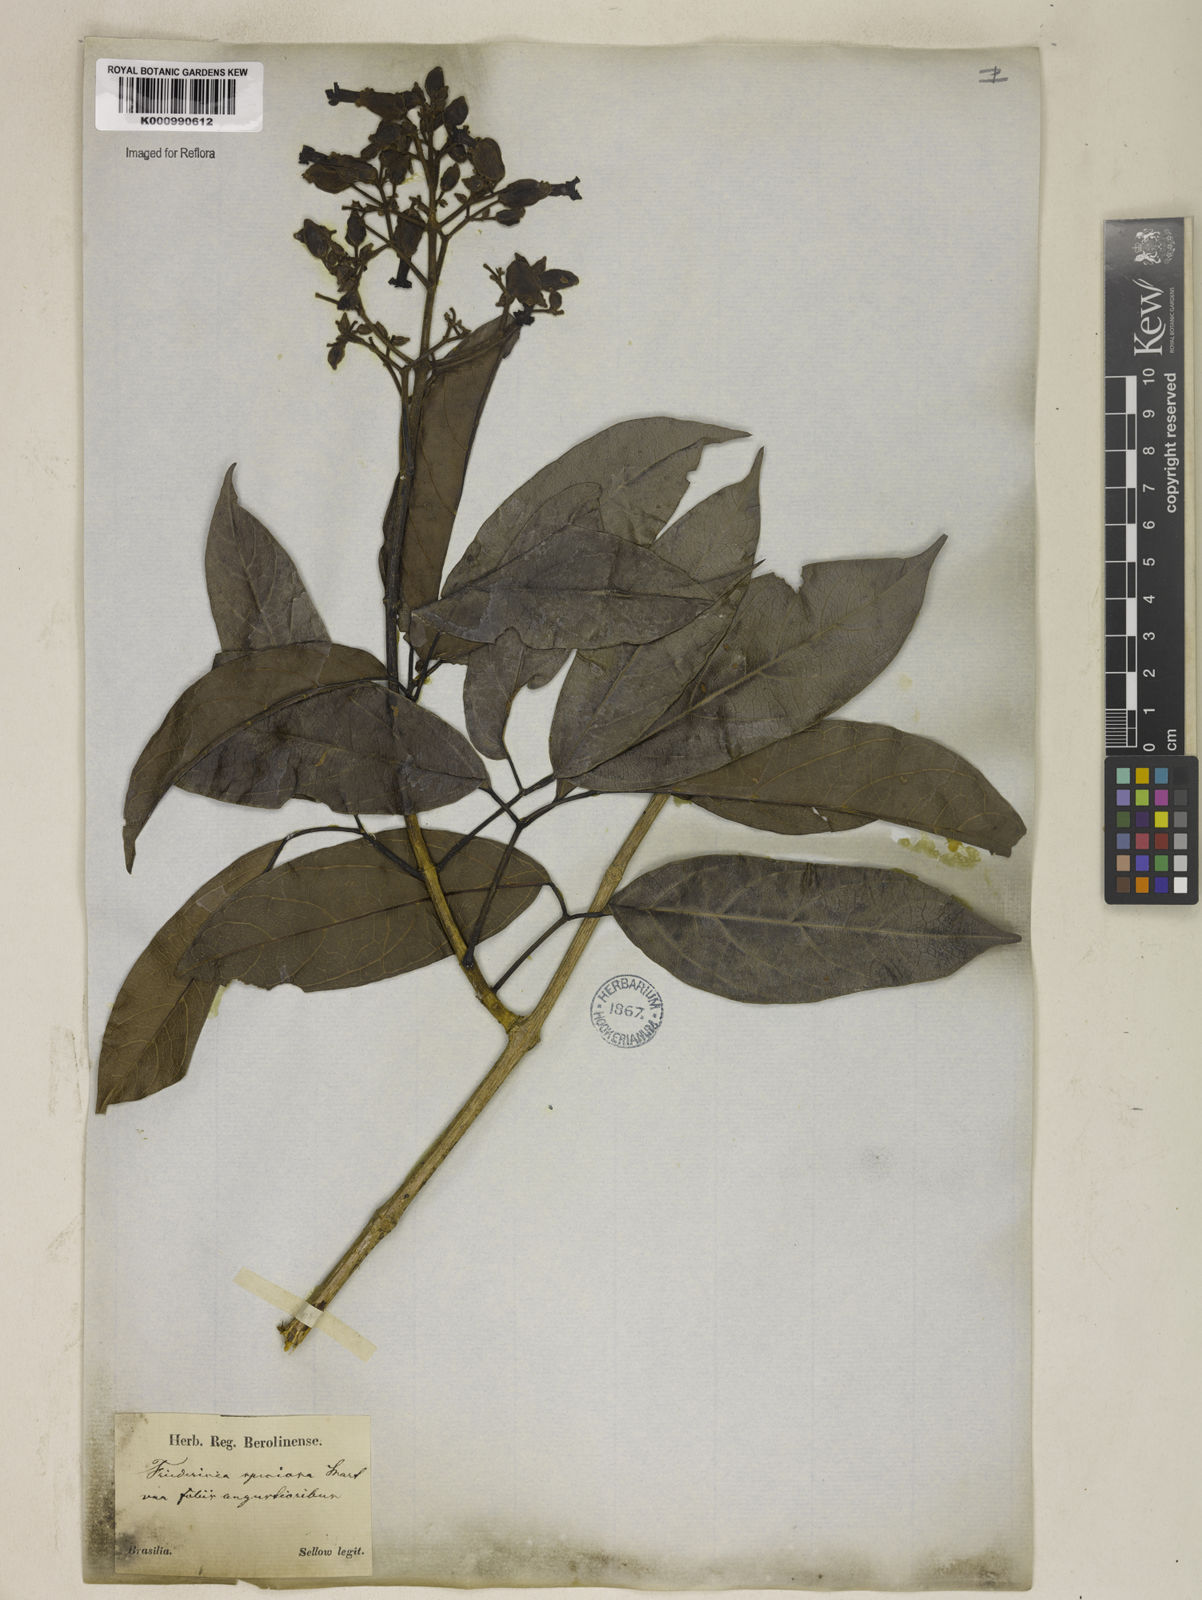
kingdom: Plantae
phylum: Tracheophyta
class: Magnoliopsida
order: Lamiales
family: Bignoniaceae
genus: Fridericia
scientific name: Fridericia speciosa
